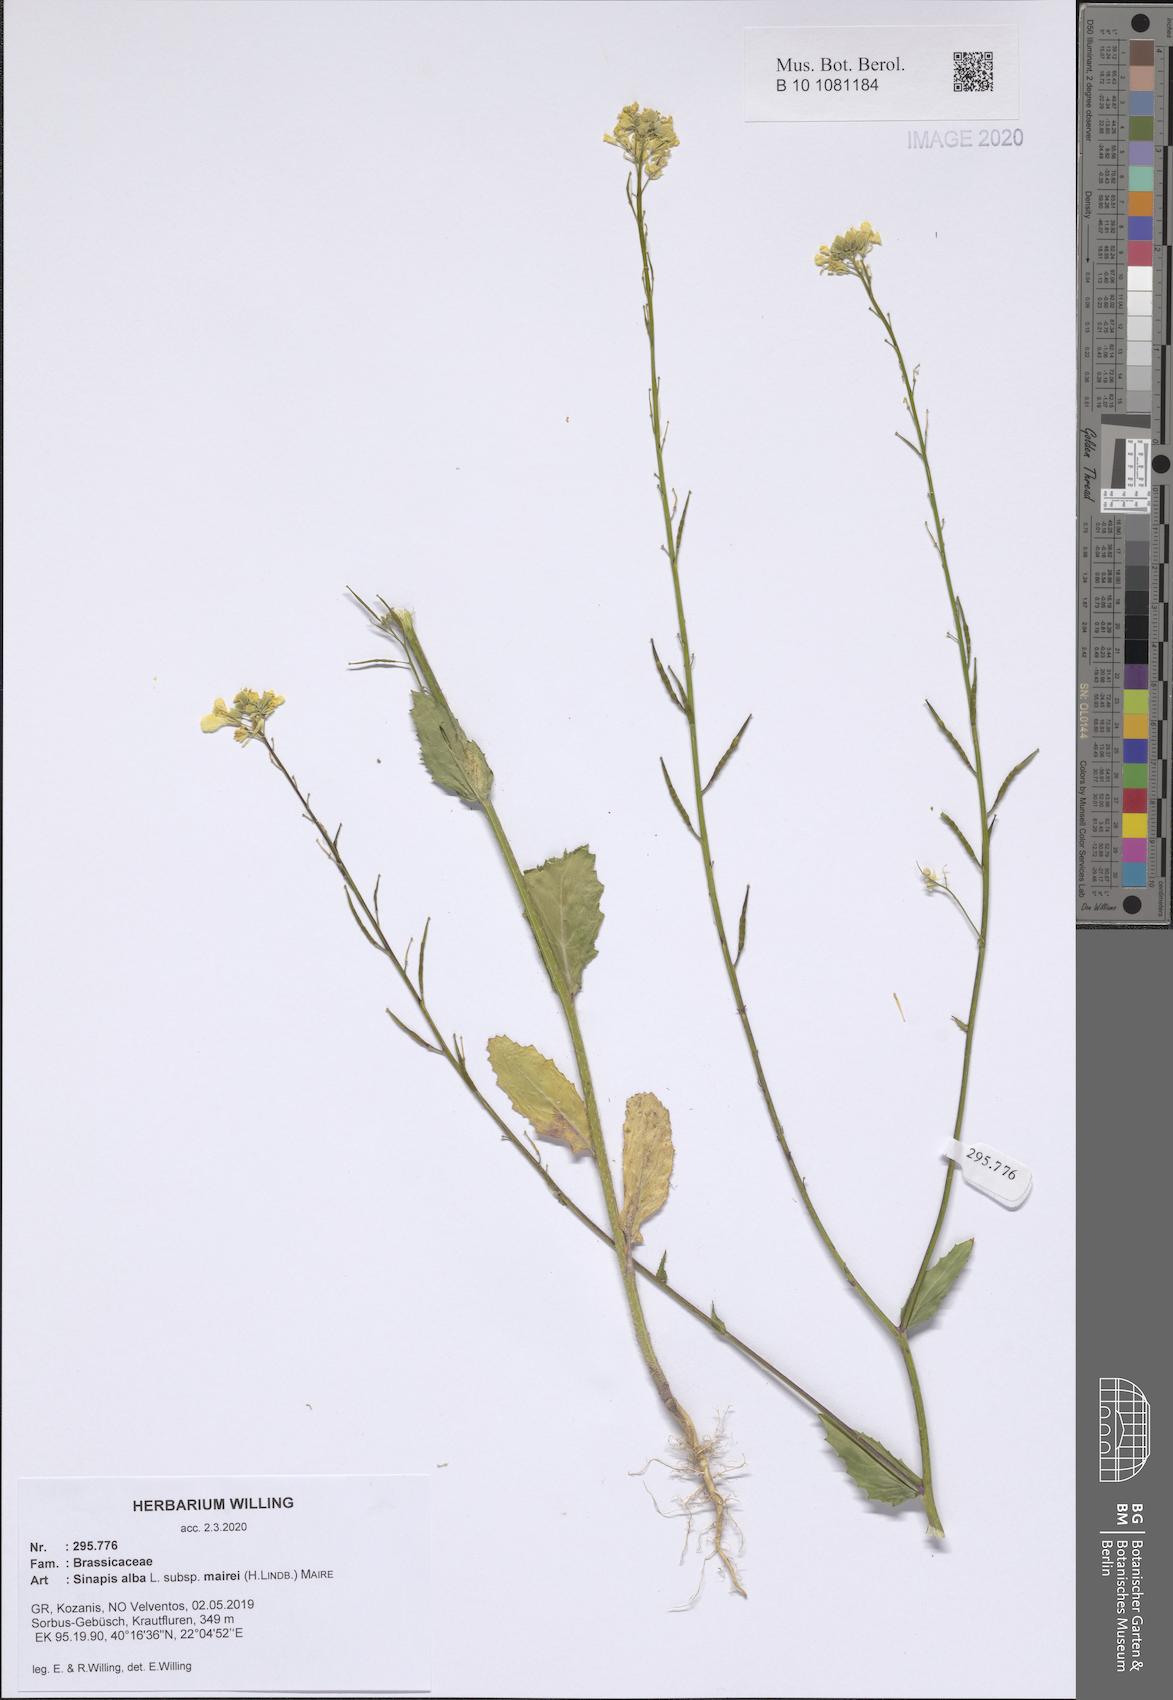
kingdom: Plantae
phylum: Tracheophyta
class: Magnoliopsida
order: Brassicales
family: Brassicaceae
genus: Sinapis
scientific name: Sinapis alba
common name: White mustard
